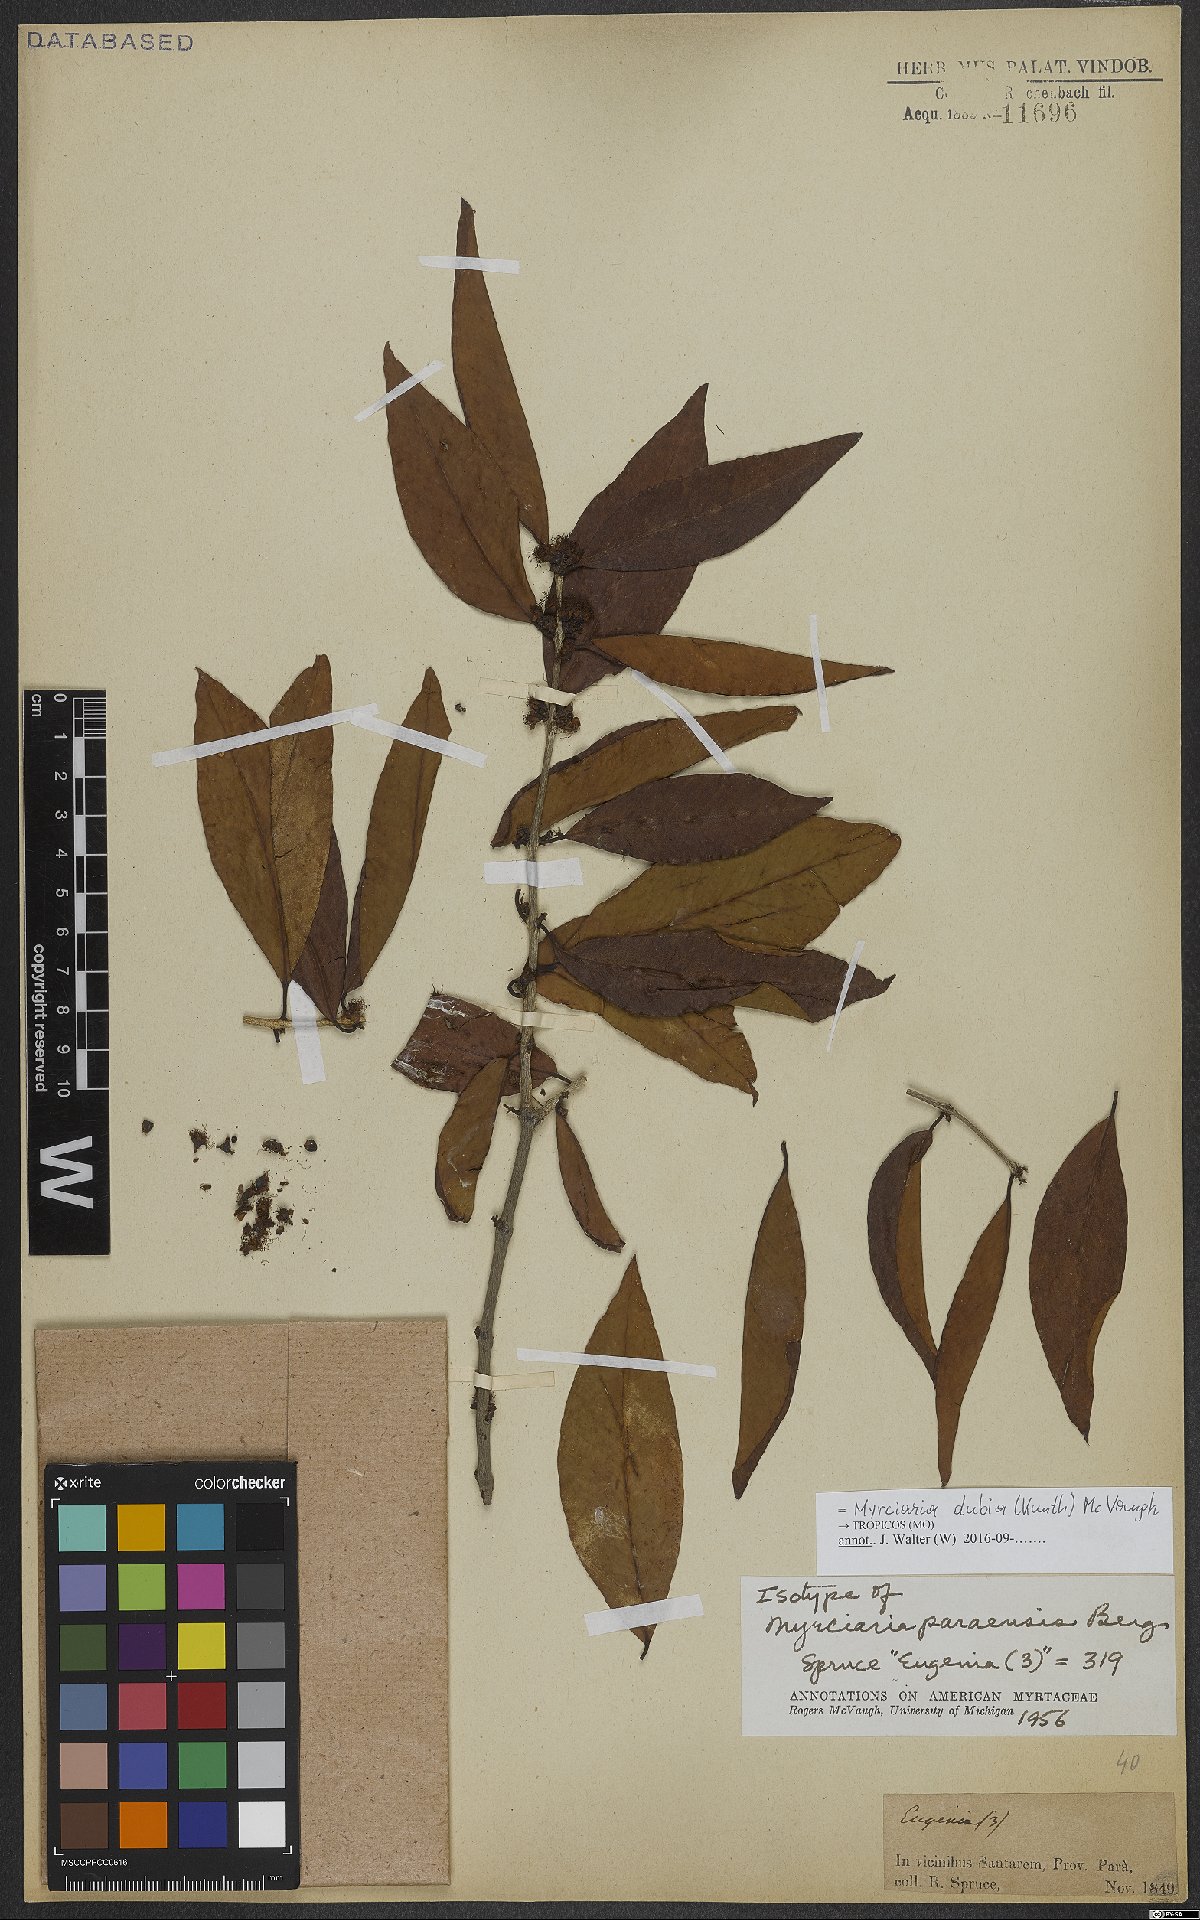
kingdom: Plantae
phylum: Tracheophyta
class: Magnoliopsida
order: Myrtales
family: Myrtaceae
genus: Myrciaria
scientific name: Myrciaria dubia
